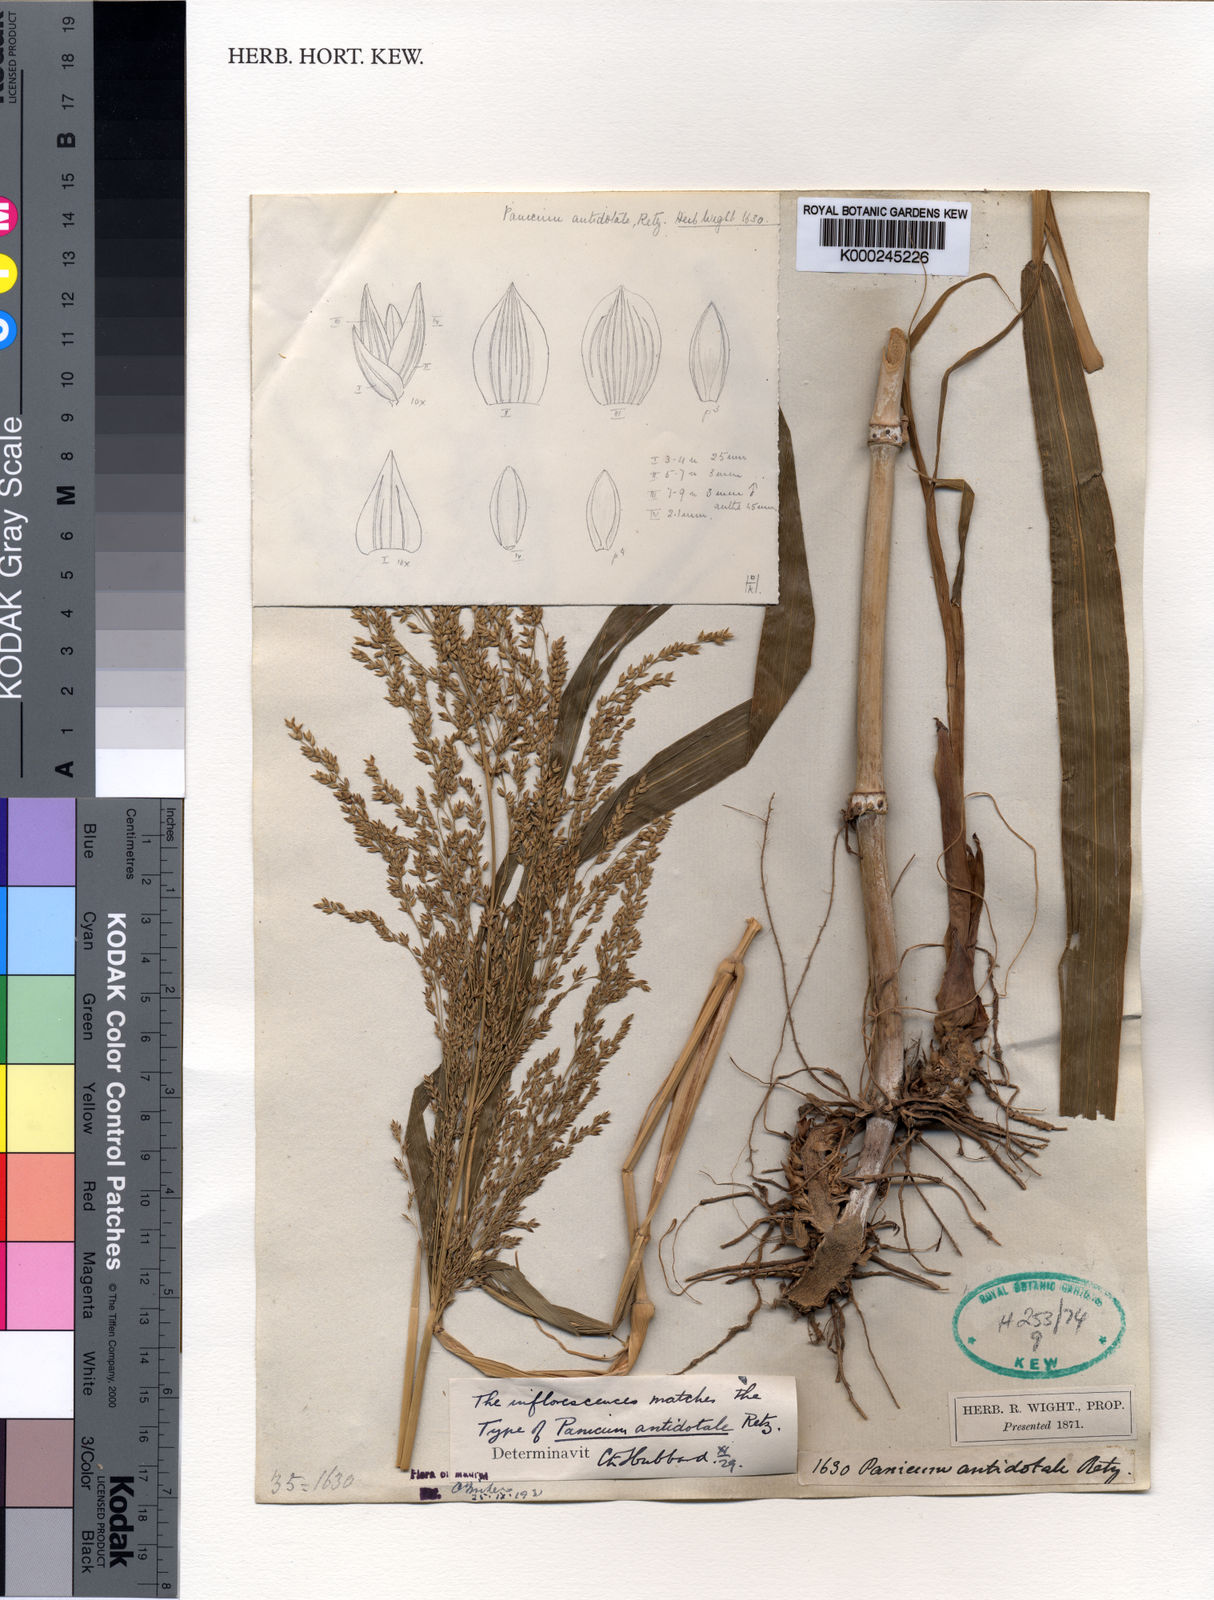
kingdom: Plantae
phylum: Tracheophyta
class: Liliopsida
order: Poales
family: Poaceae
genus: Panicum
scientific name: Panicum antidotale
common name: Blue panicum
